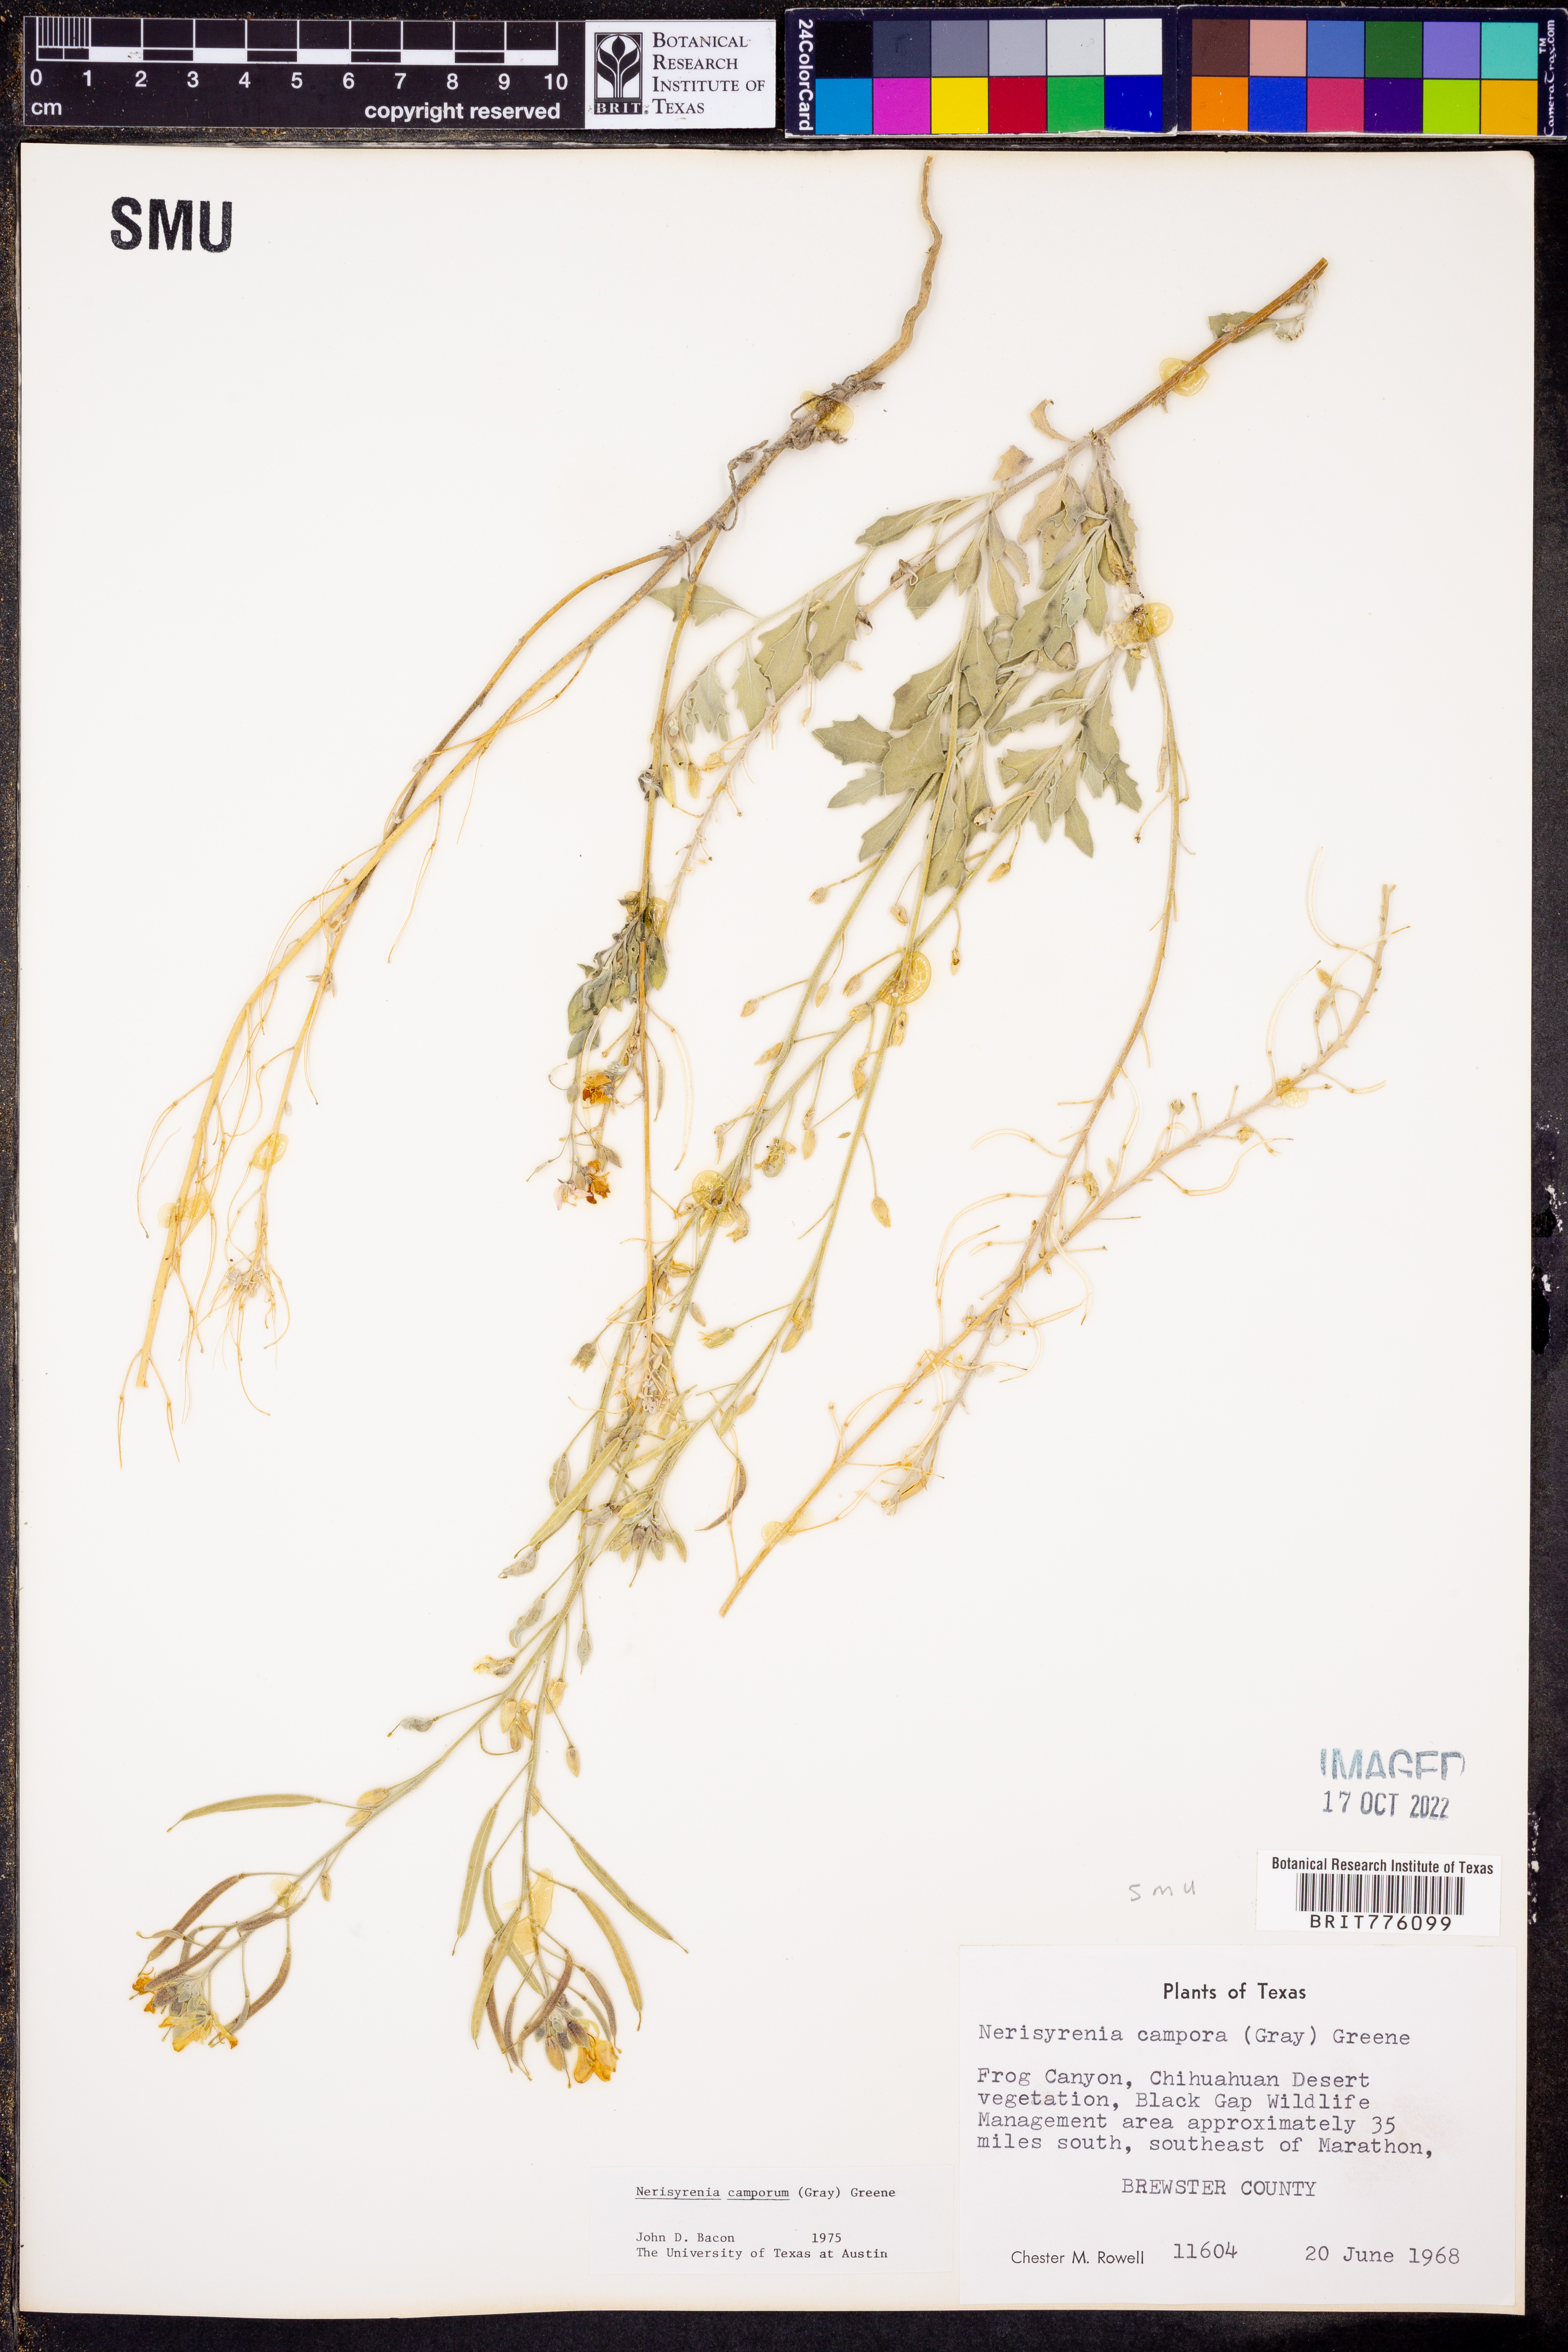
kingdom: Plantae
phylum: Tracheophyta
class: Magnoliopsida
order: Brassicales
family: Brassicaceae
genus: Nerisyrenia
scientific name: Nerisyrenia camporum
